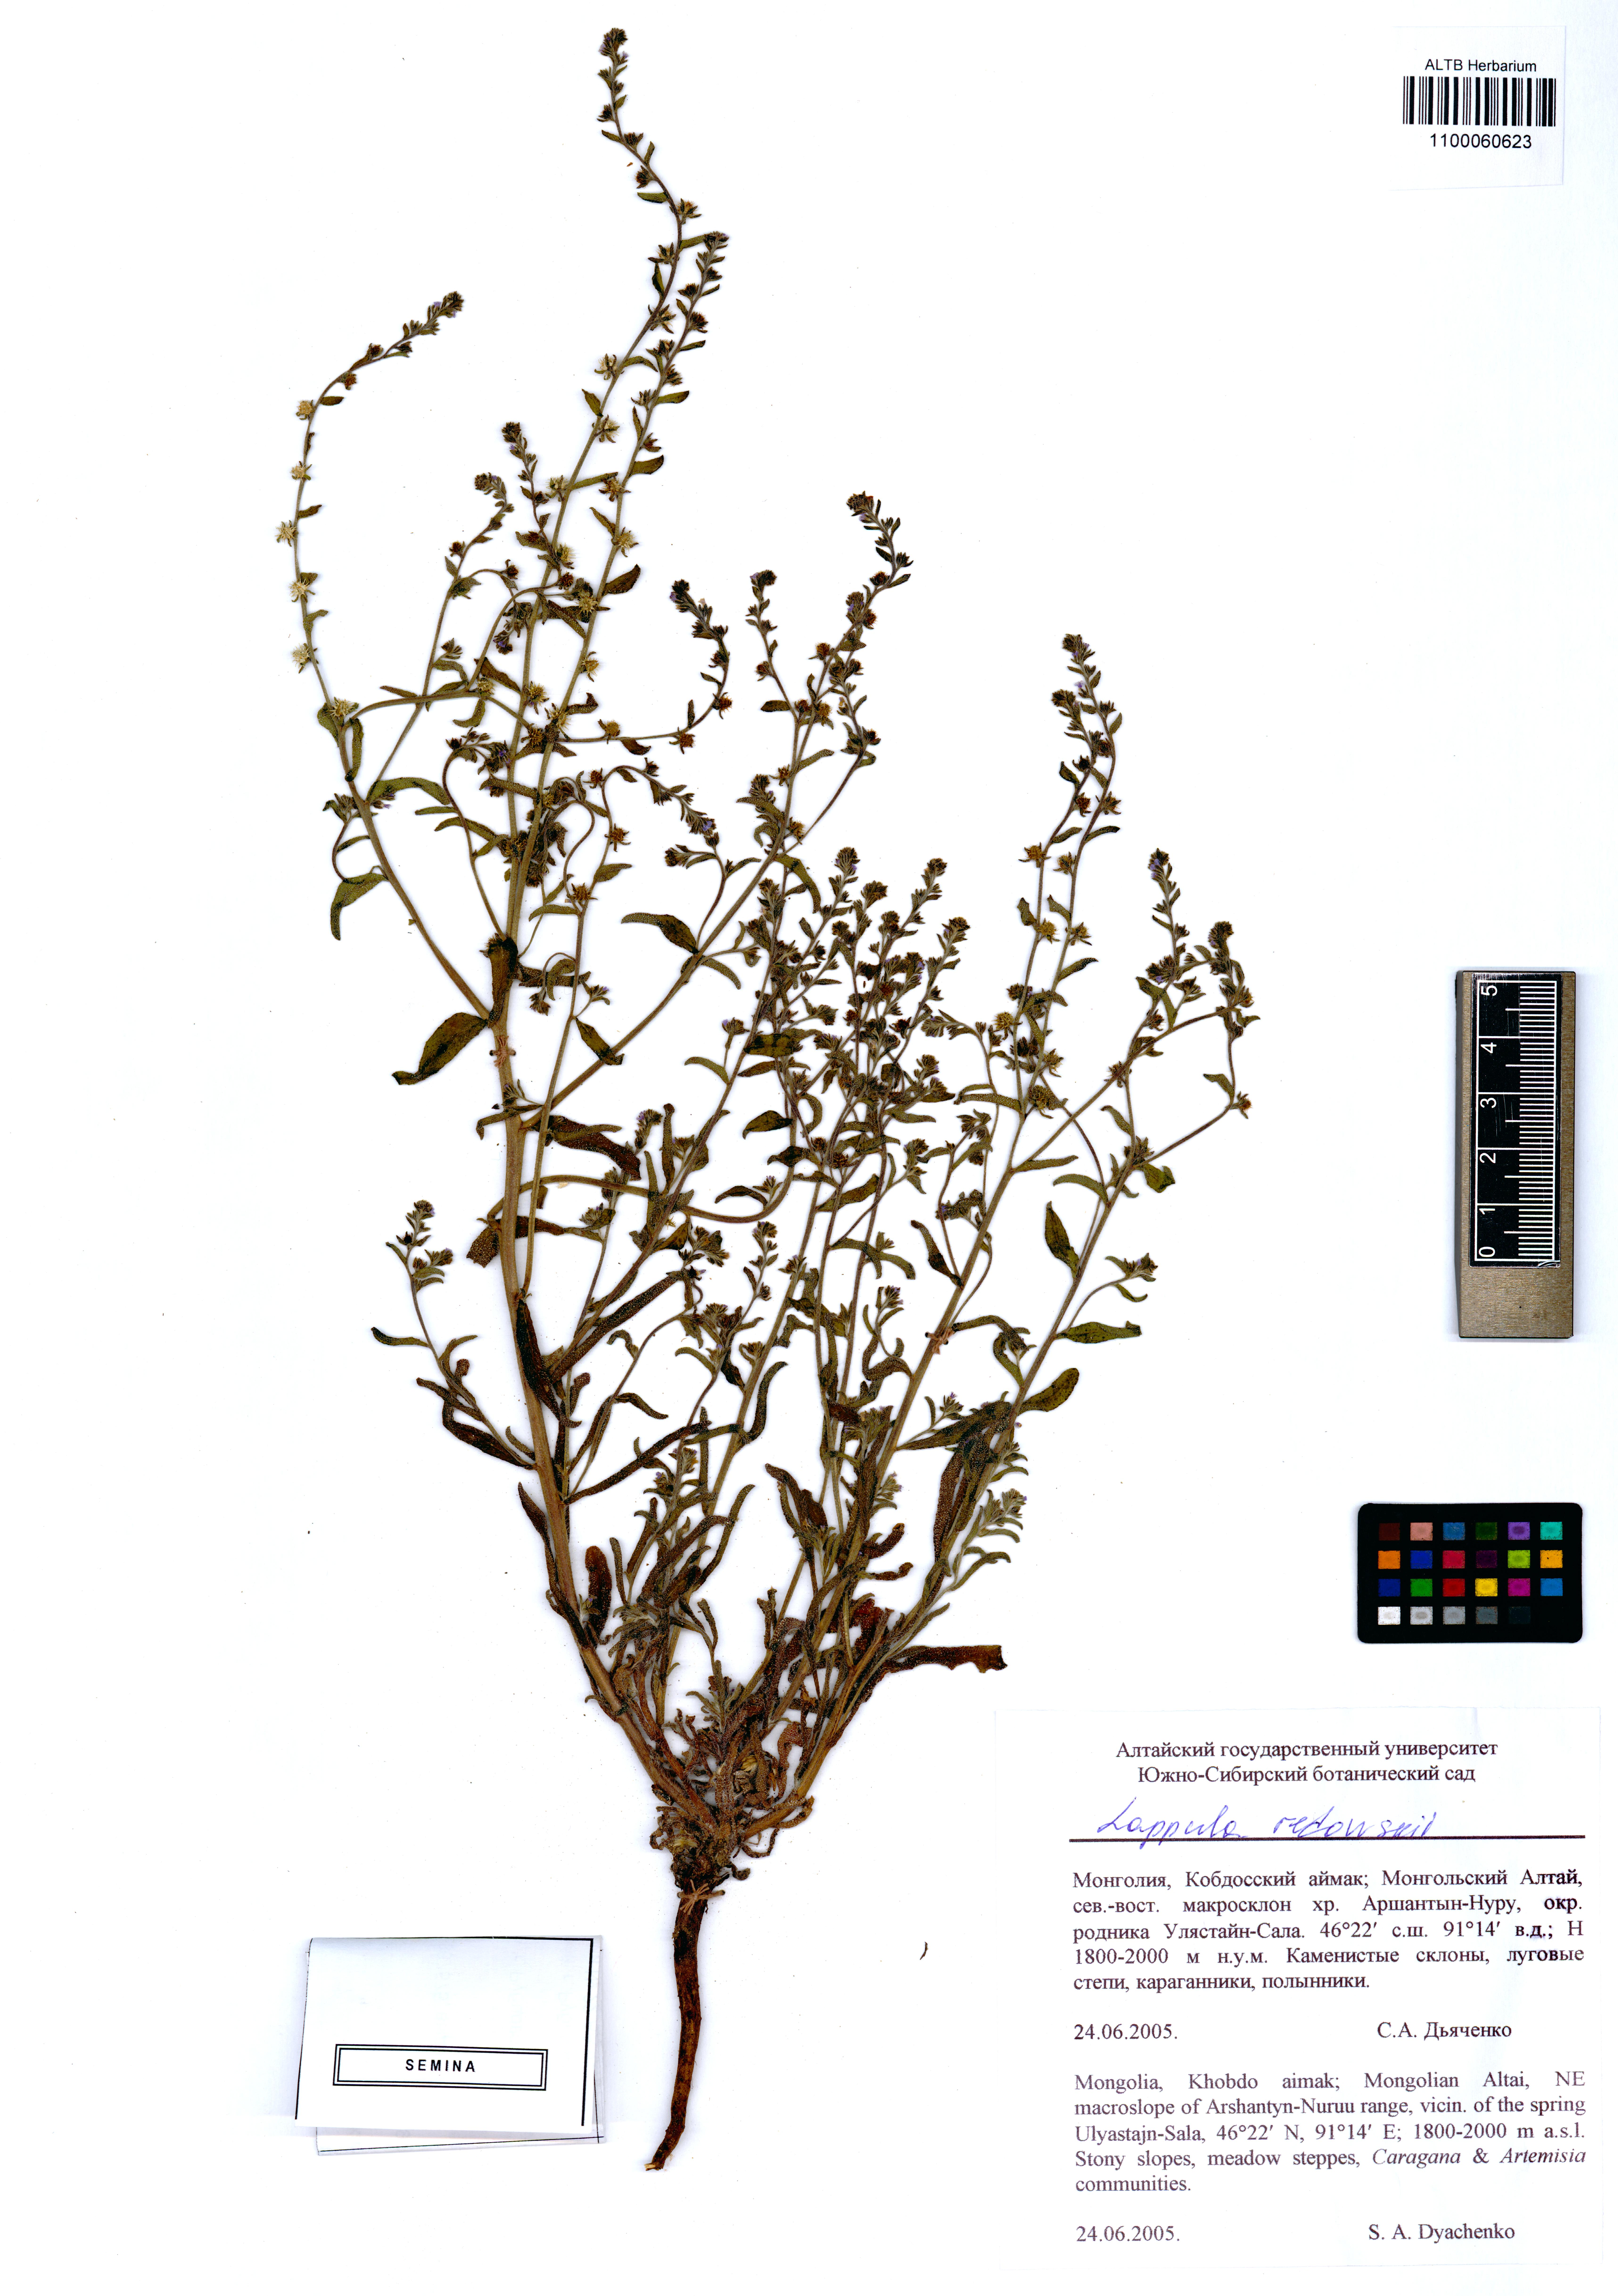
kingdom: Plantae
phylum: Tracheophyta
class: Magnoliopsida
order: Boraginales
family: Boraginaceae
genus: Lappula
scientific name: Lappula redowskii
